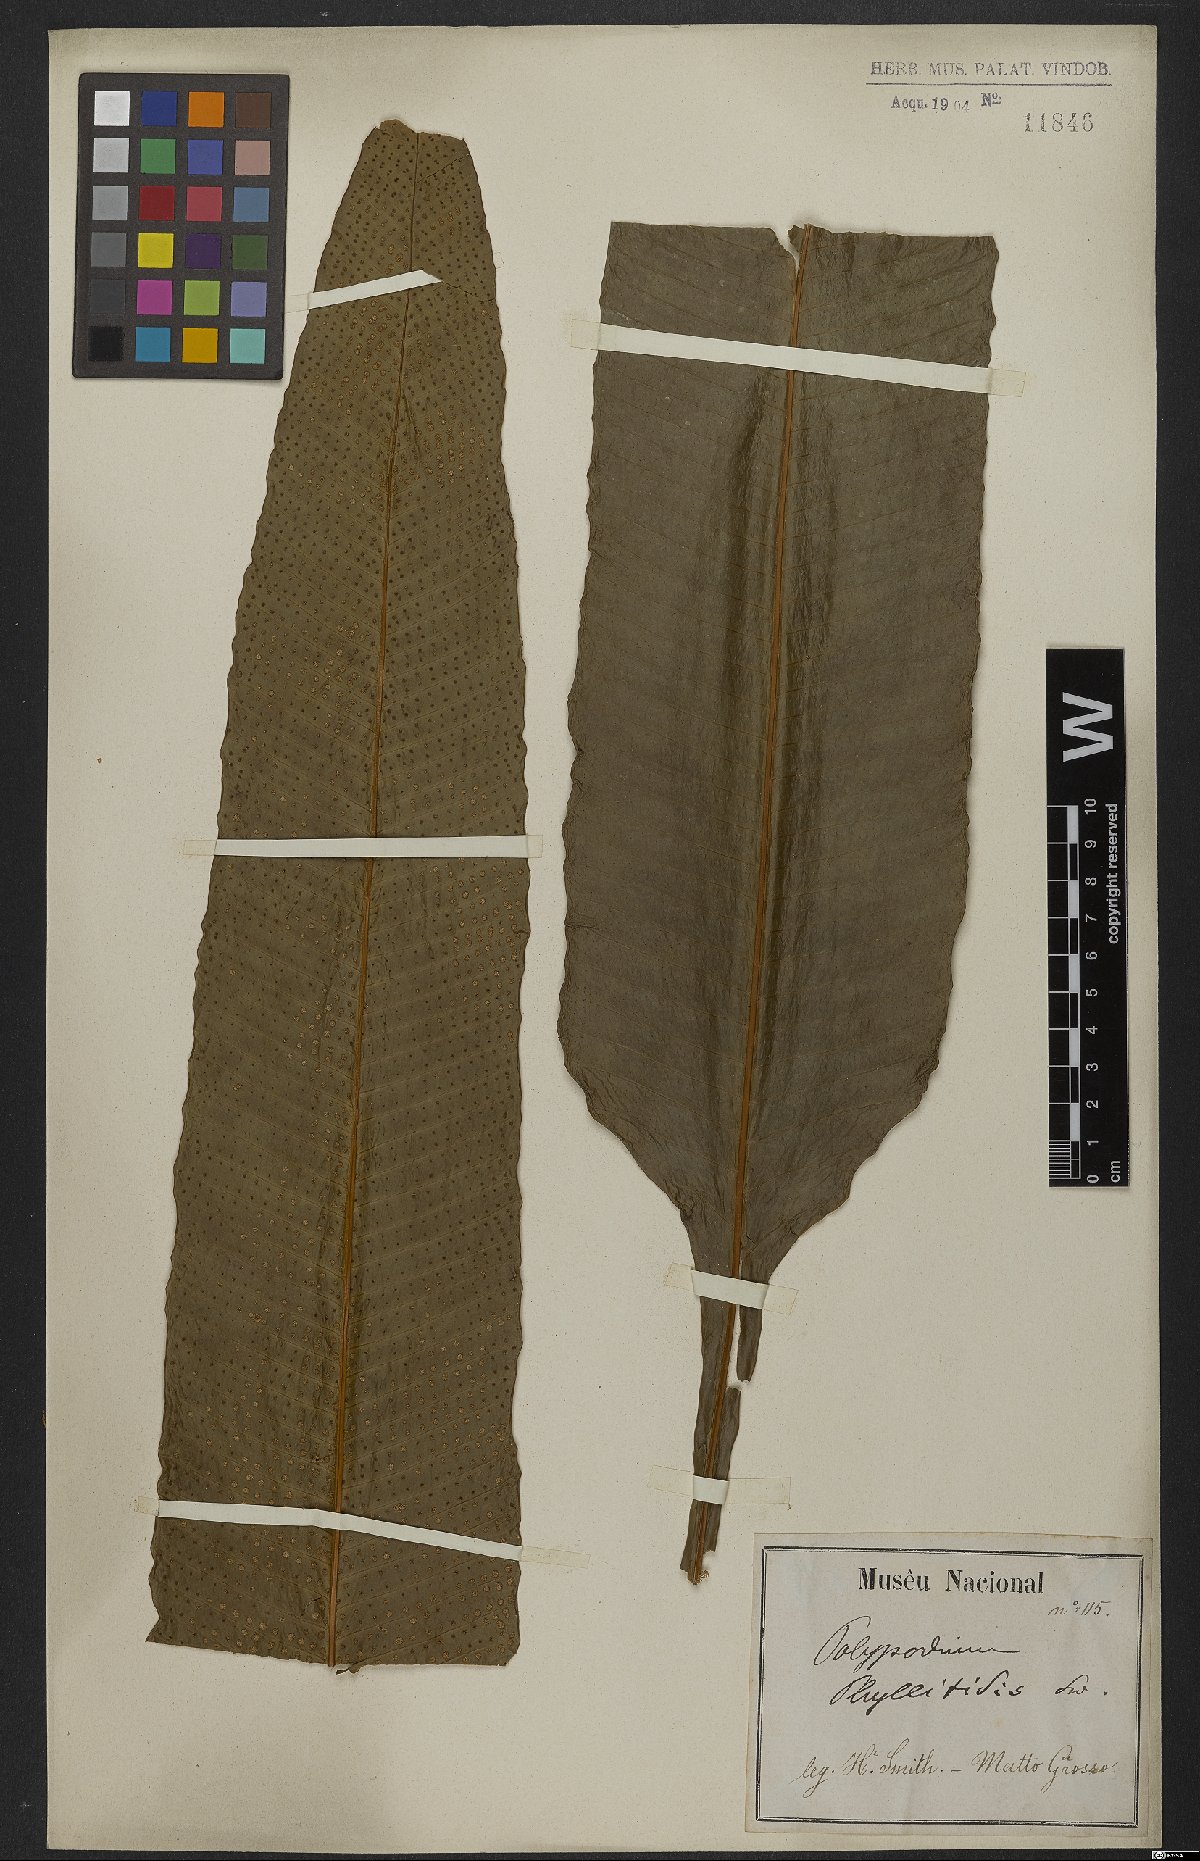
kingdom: Plantae
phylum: Tracheophyta
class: Polypodiopsida
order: Polypodiales
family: Polypodiaceae
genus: Campyloneurum
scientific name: Campyloneurum phyllitidis
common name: Cow-tongue fern
